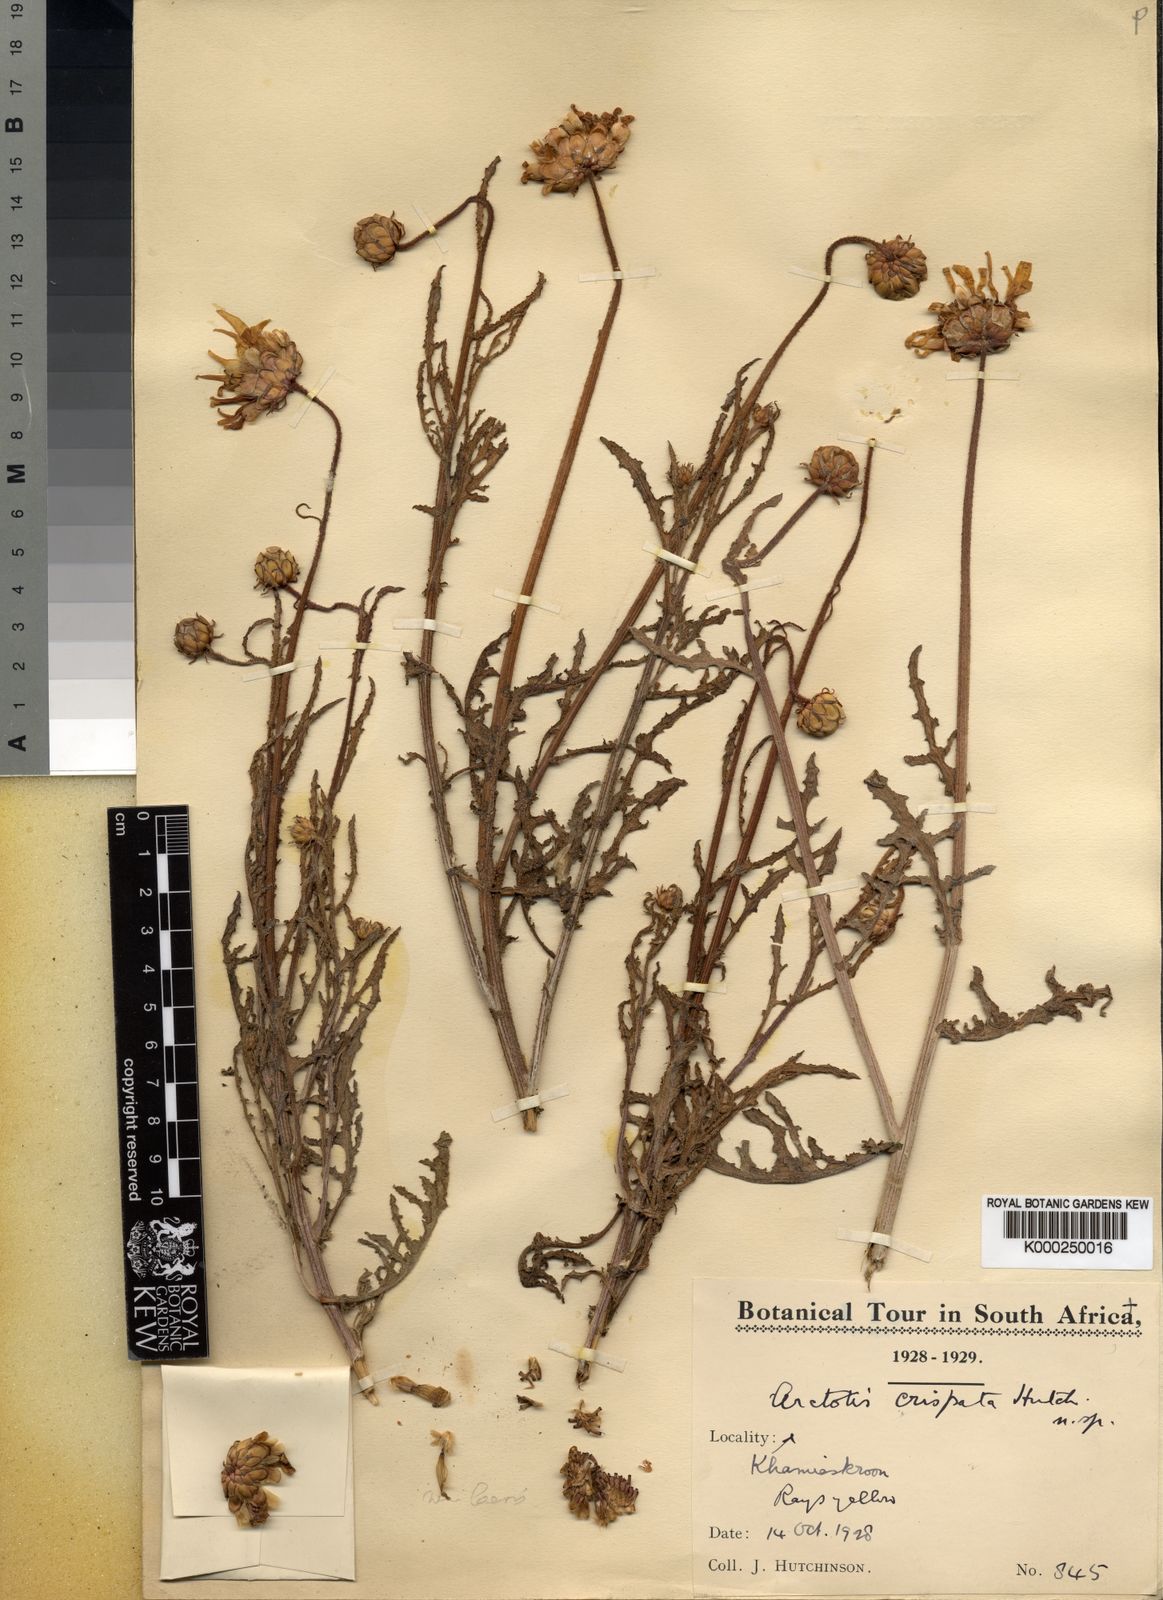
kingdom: Plantae
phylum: Tracheophyta
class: Magnoliopsida
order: Asterales
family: Asteraceae
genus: Arctotis
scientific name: Arctotis laciniata
